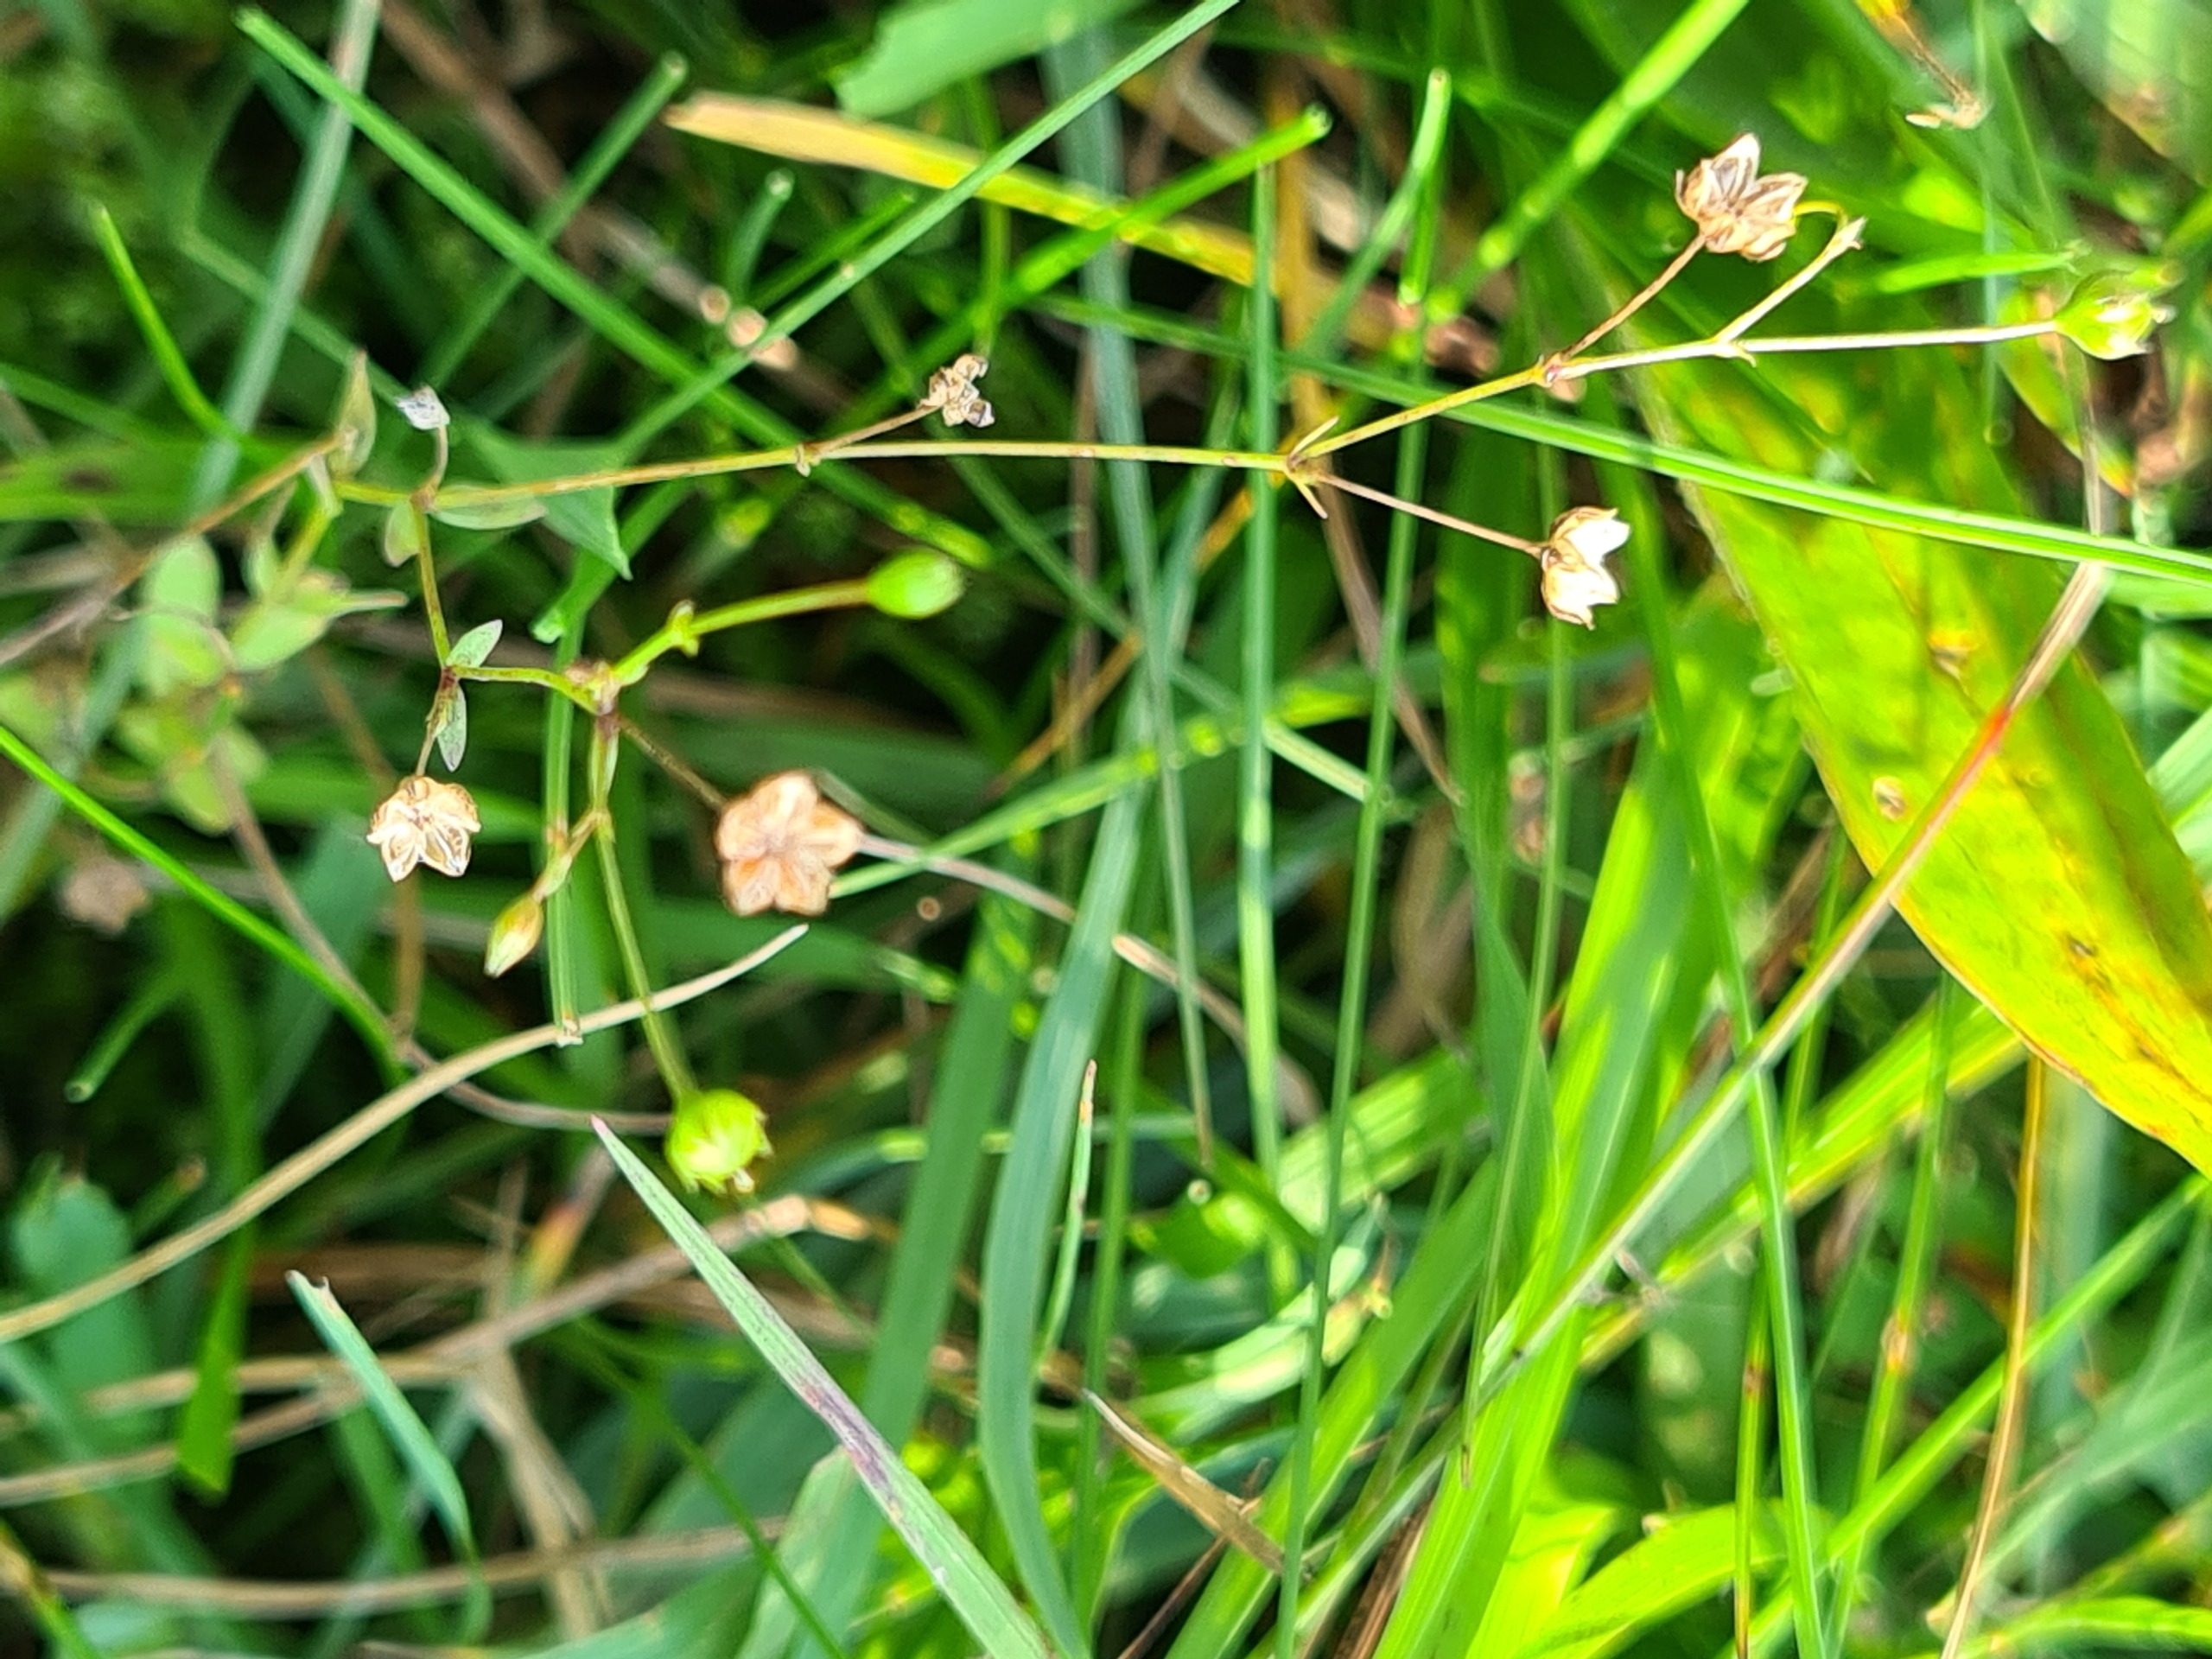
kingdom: Plantae
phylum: Tracheophyta
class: Magnoliopsida
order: Malpighiales
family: Linaceae
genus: Linum
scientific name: Linum catharticum
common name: Vild hør
